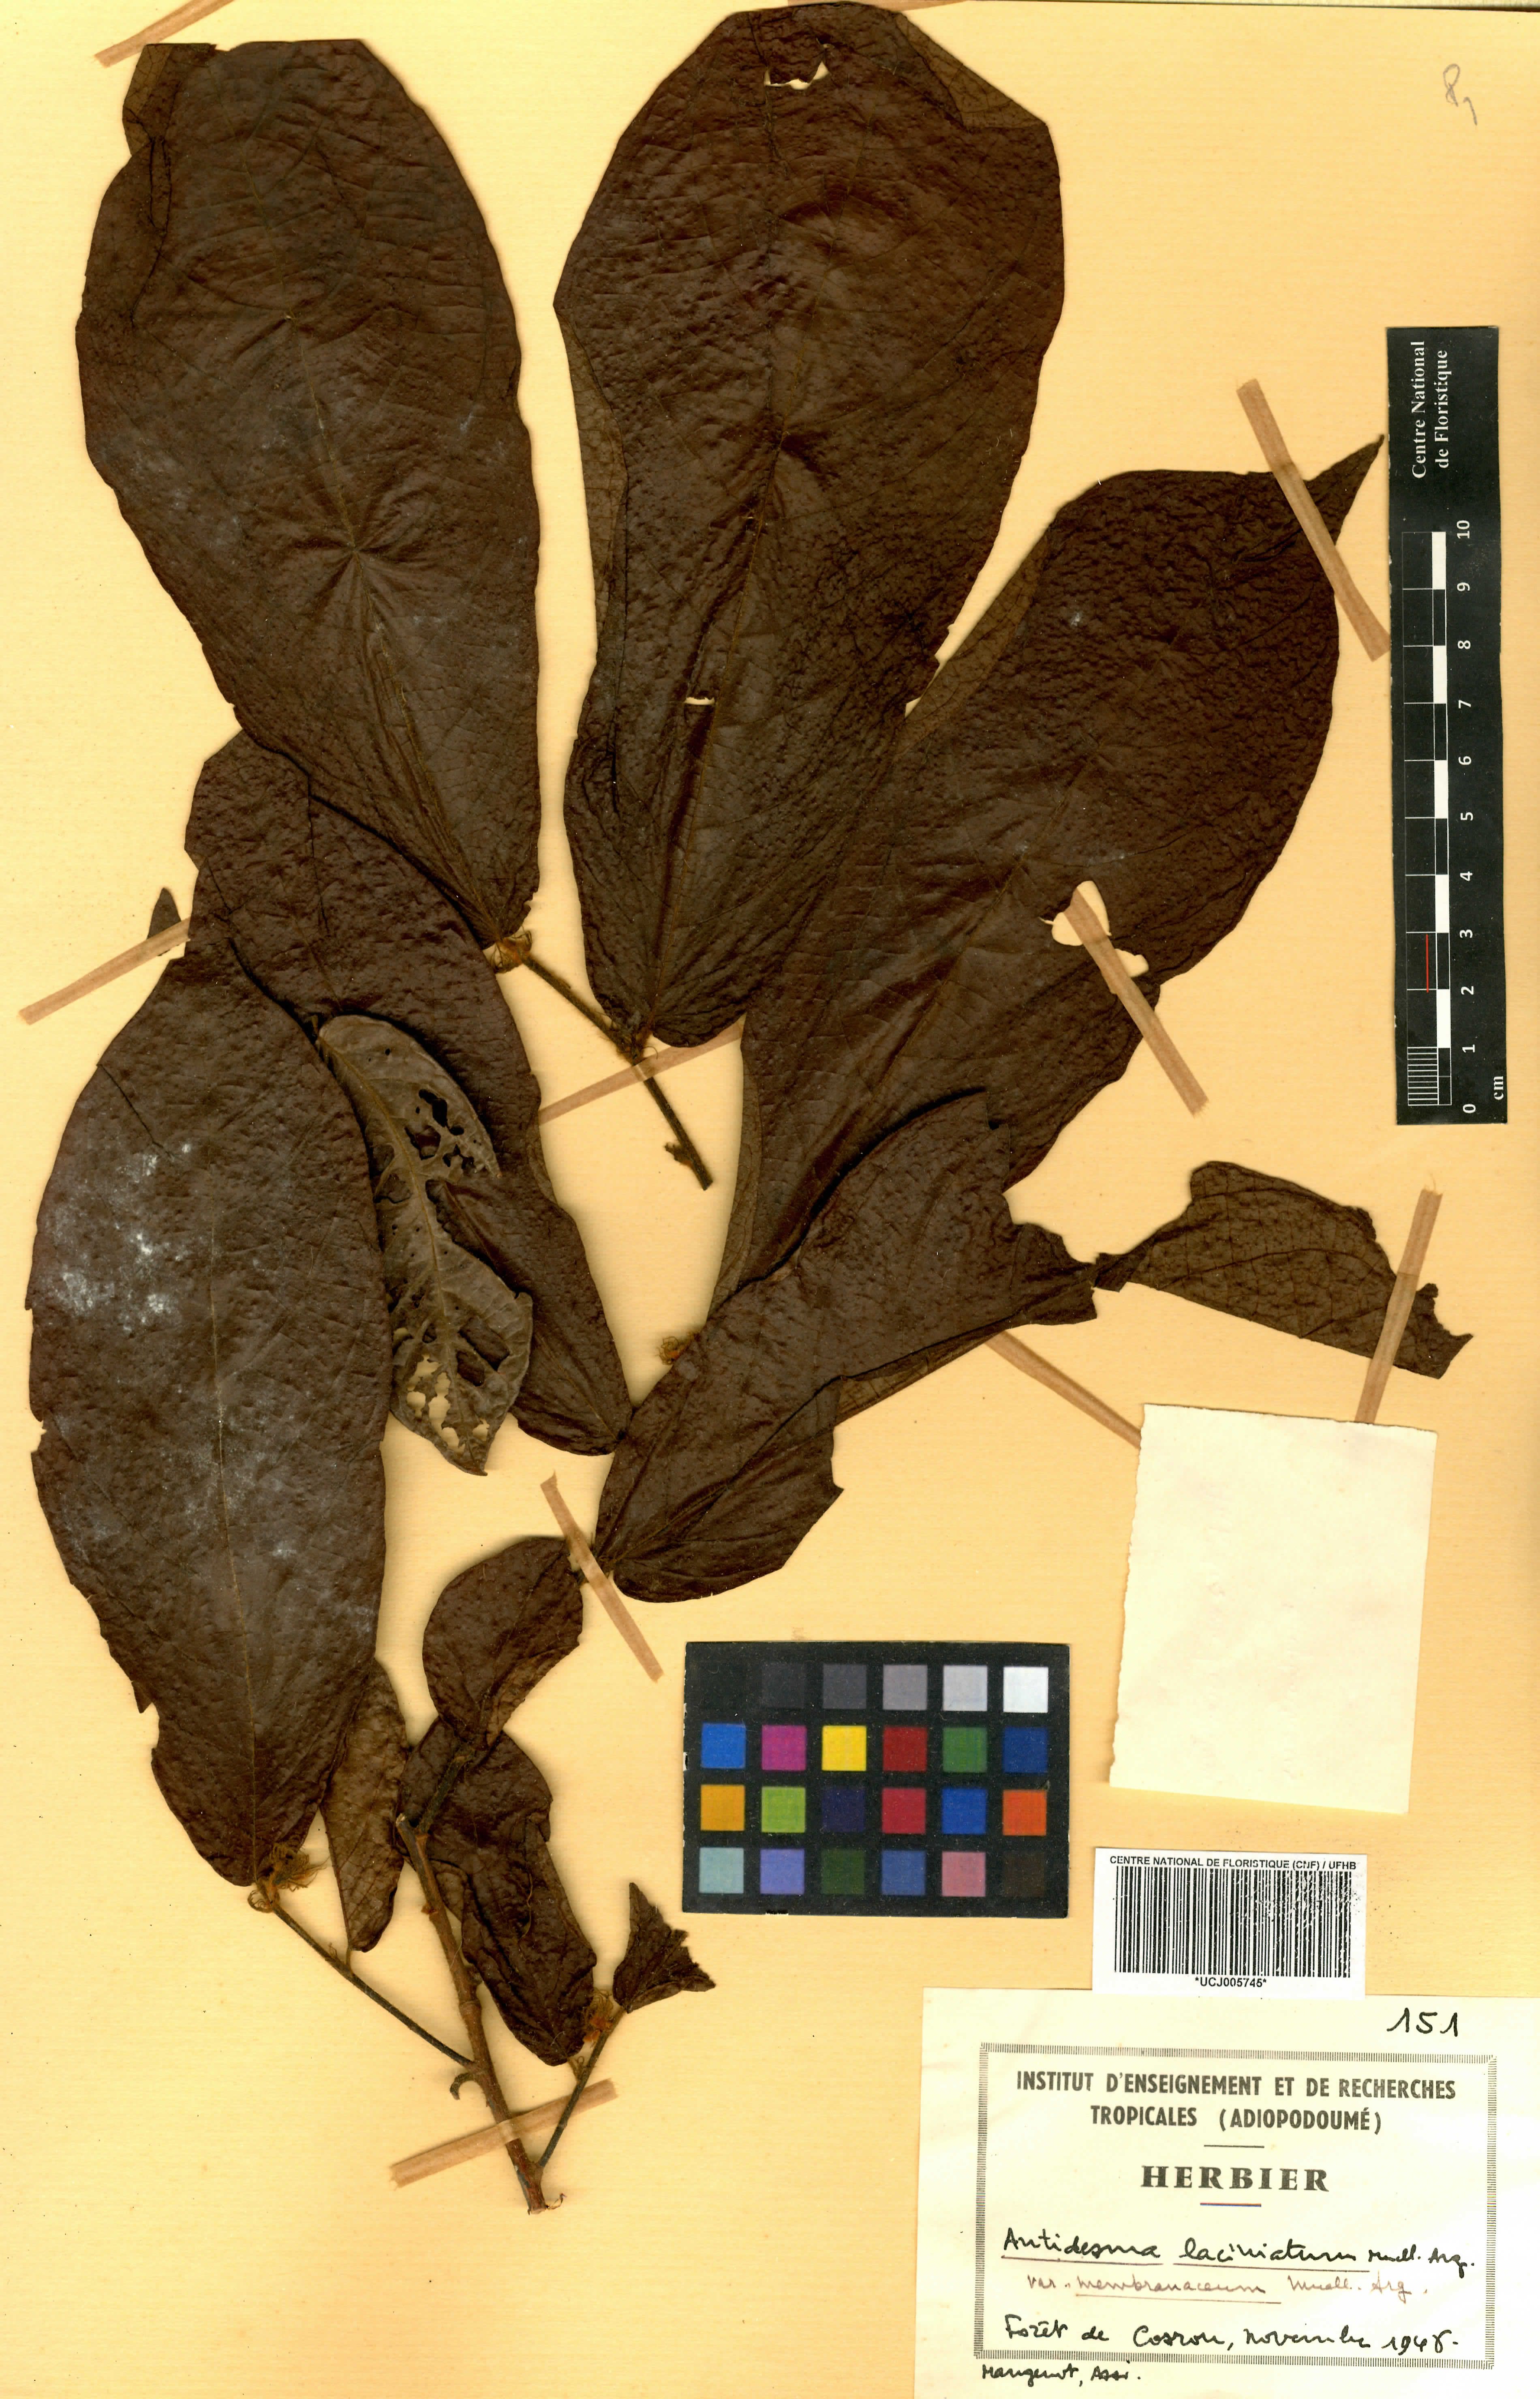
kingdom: Plantae
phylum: Tracheophyta
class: Magnoliopsida
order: Malpighiales
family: Phyllanthaceae
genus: Antidesma
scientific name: Antidesma laciniatum
